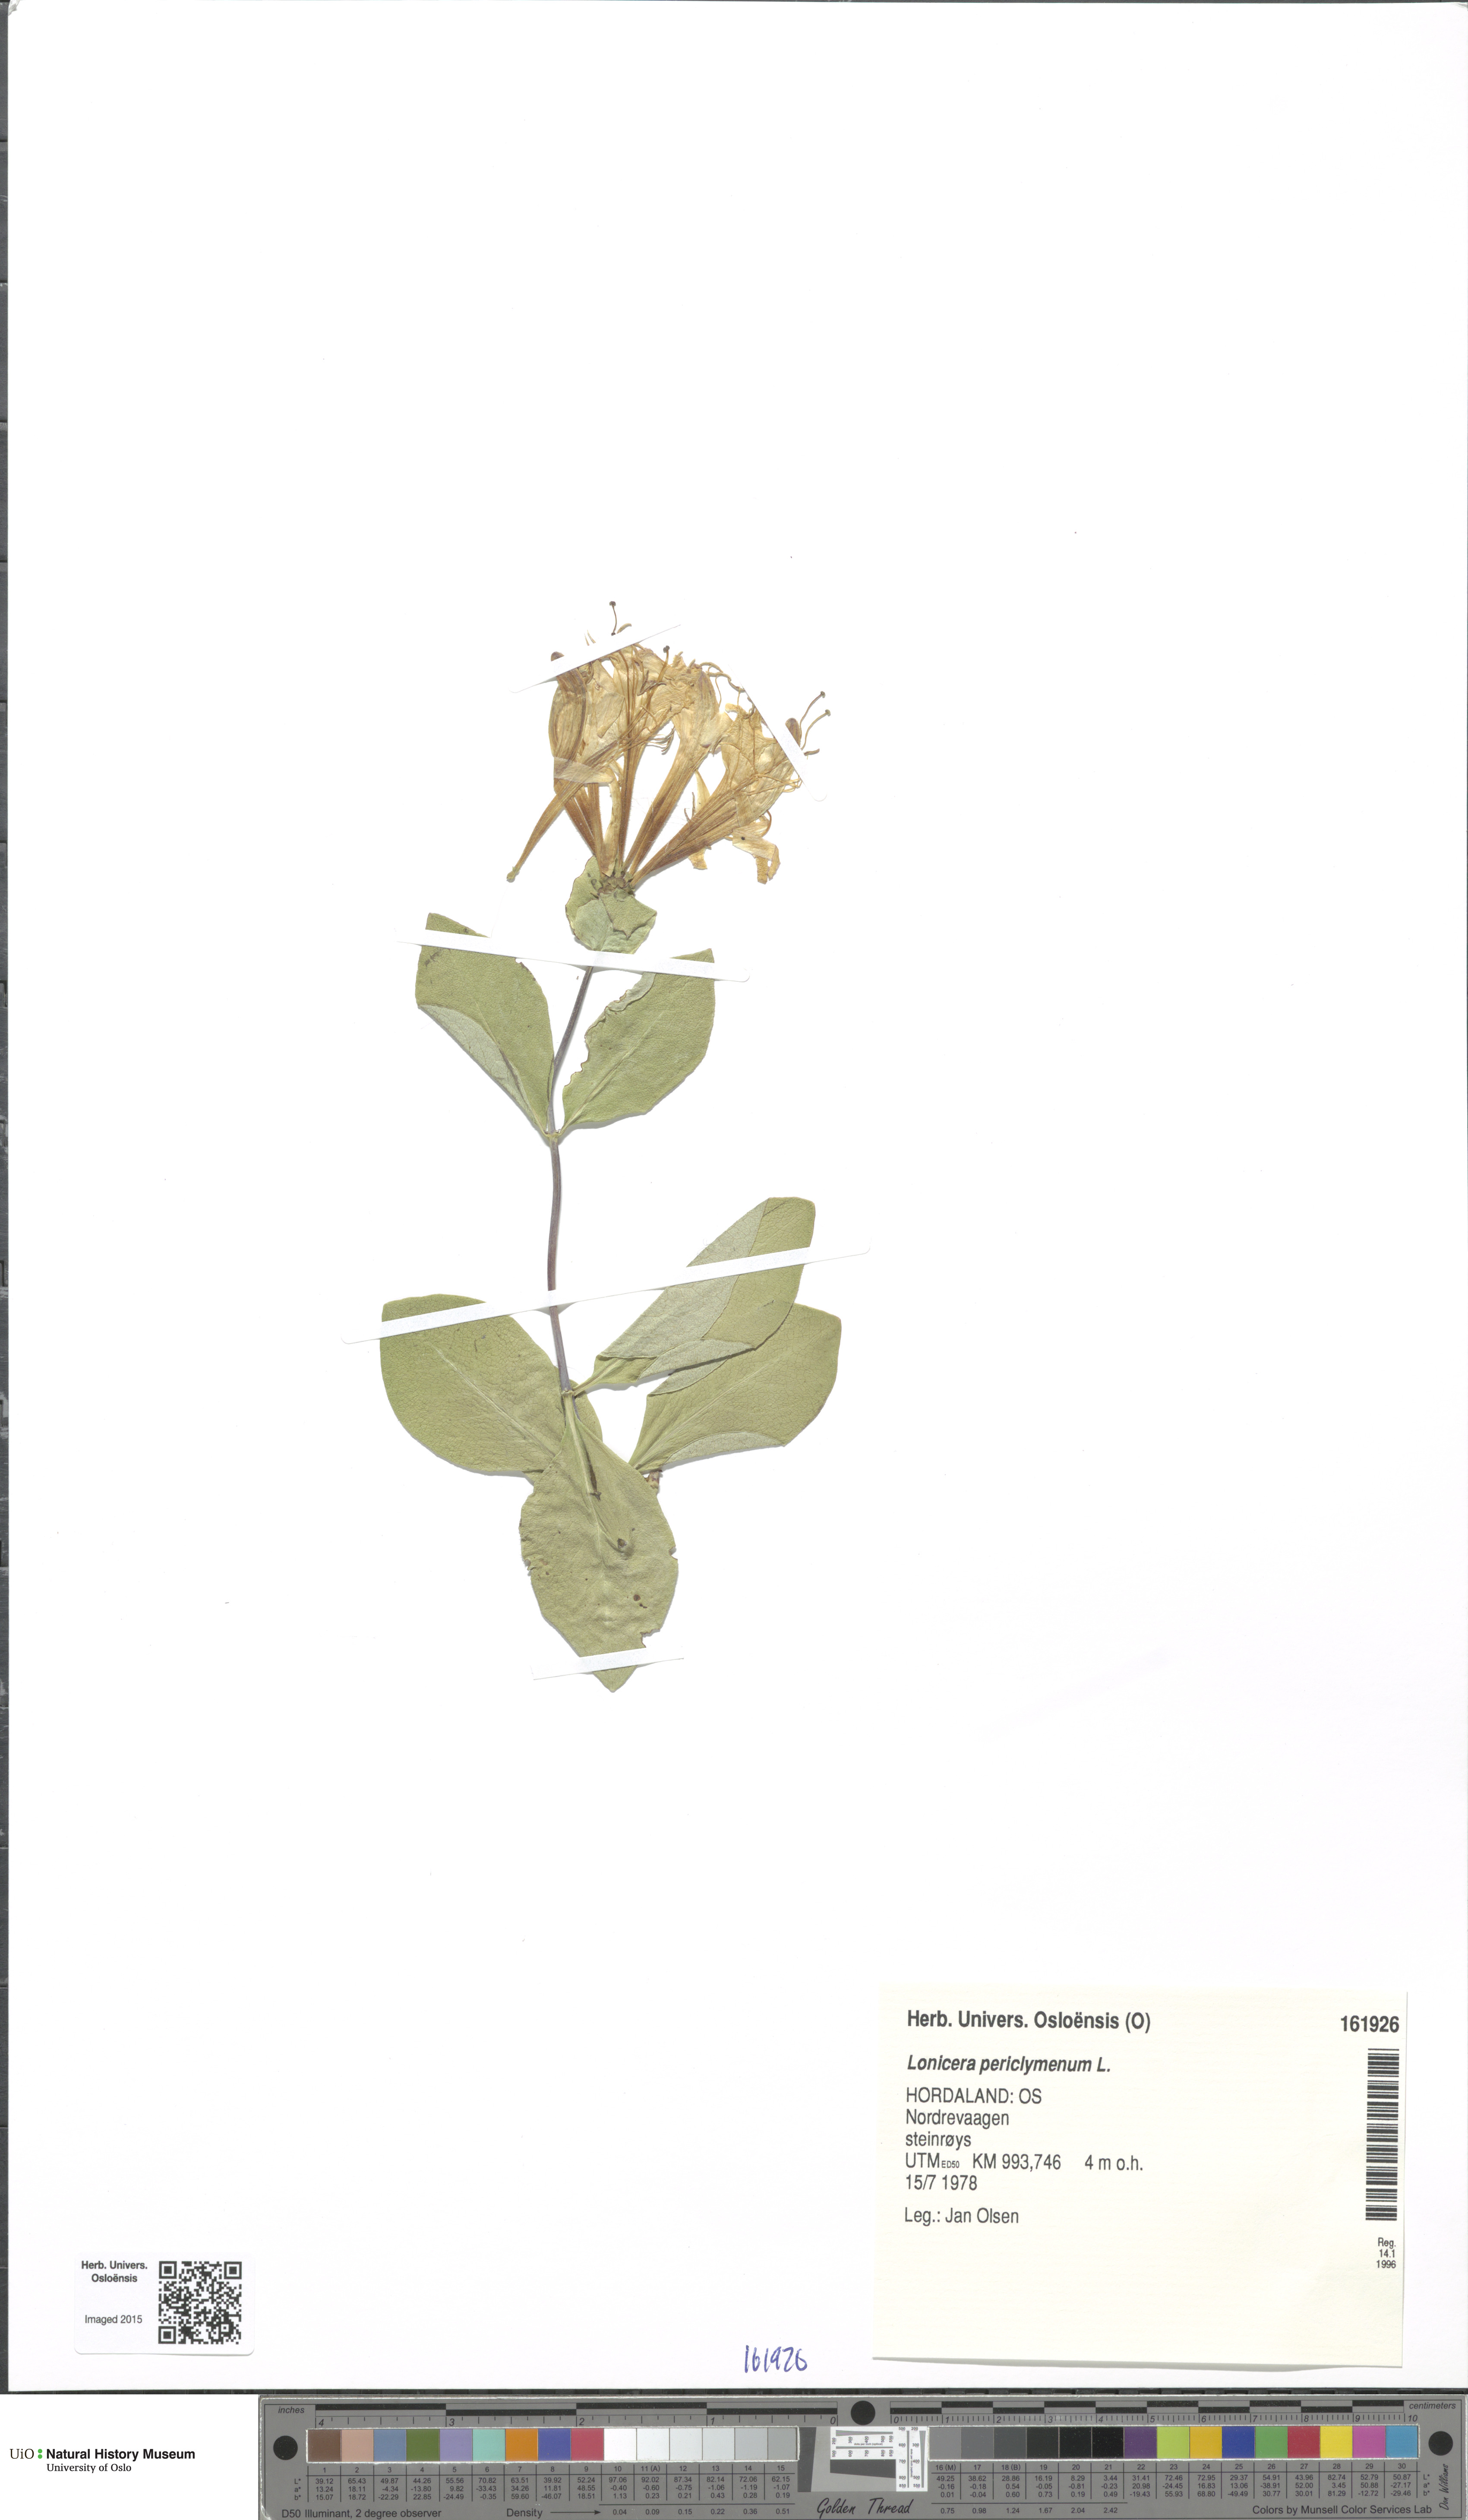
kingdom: Plantae
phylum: Tracheophyta
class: Magnoliopsida
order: Dipsacales
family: Caprifoliaceae
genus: Lonicera
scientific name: Lonicera periclymenum
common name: European honeysuckle
